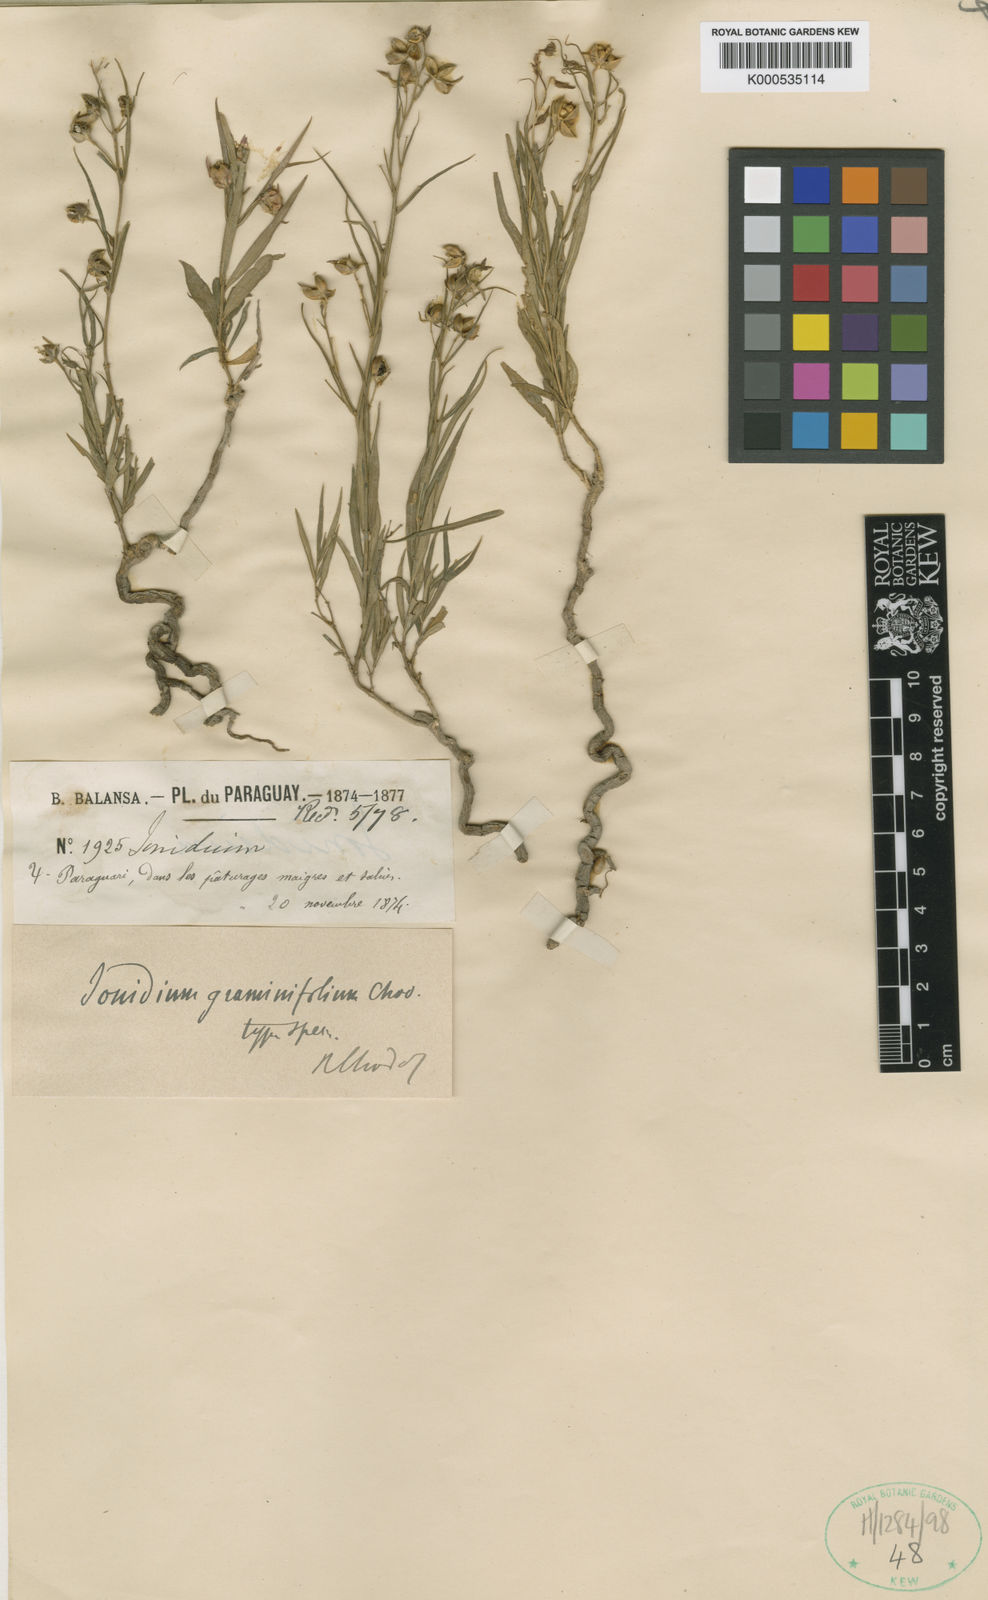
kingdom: Plantae
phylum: Tracheophyta
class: Magnoliopsida
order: Malpighiales
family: Violaceae
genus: Pombalia
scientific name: Pombalia graminifolia
